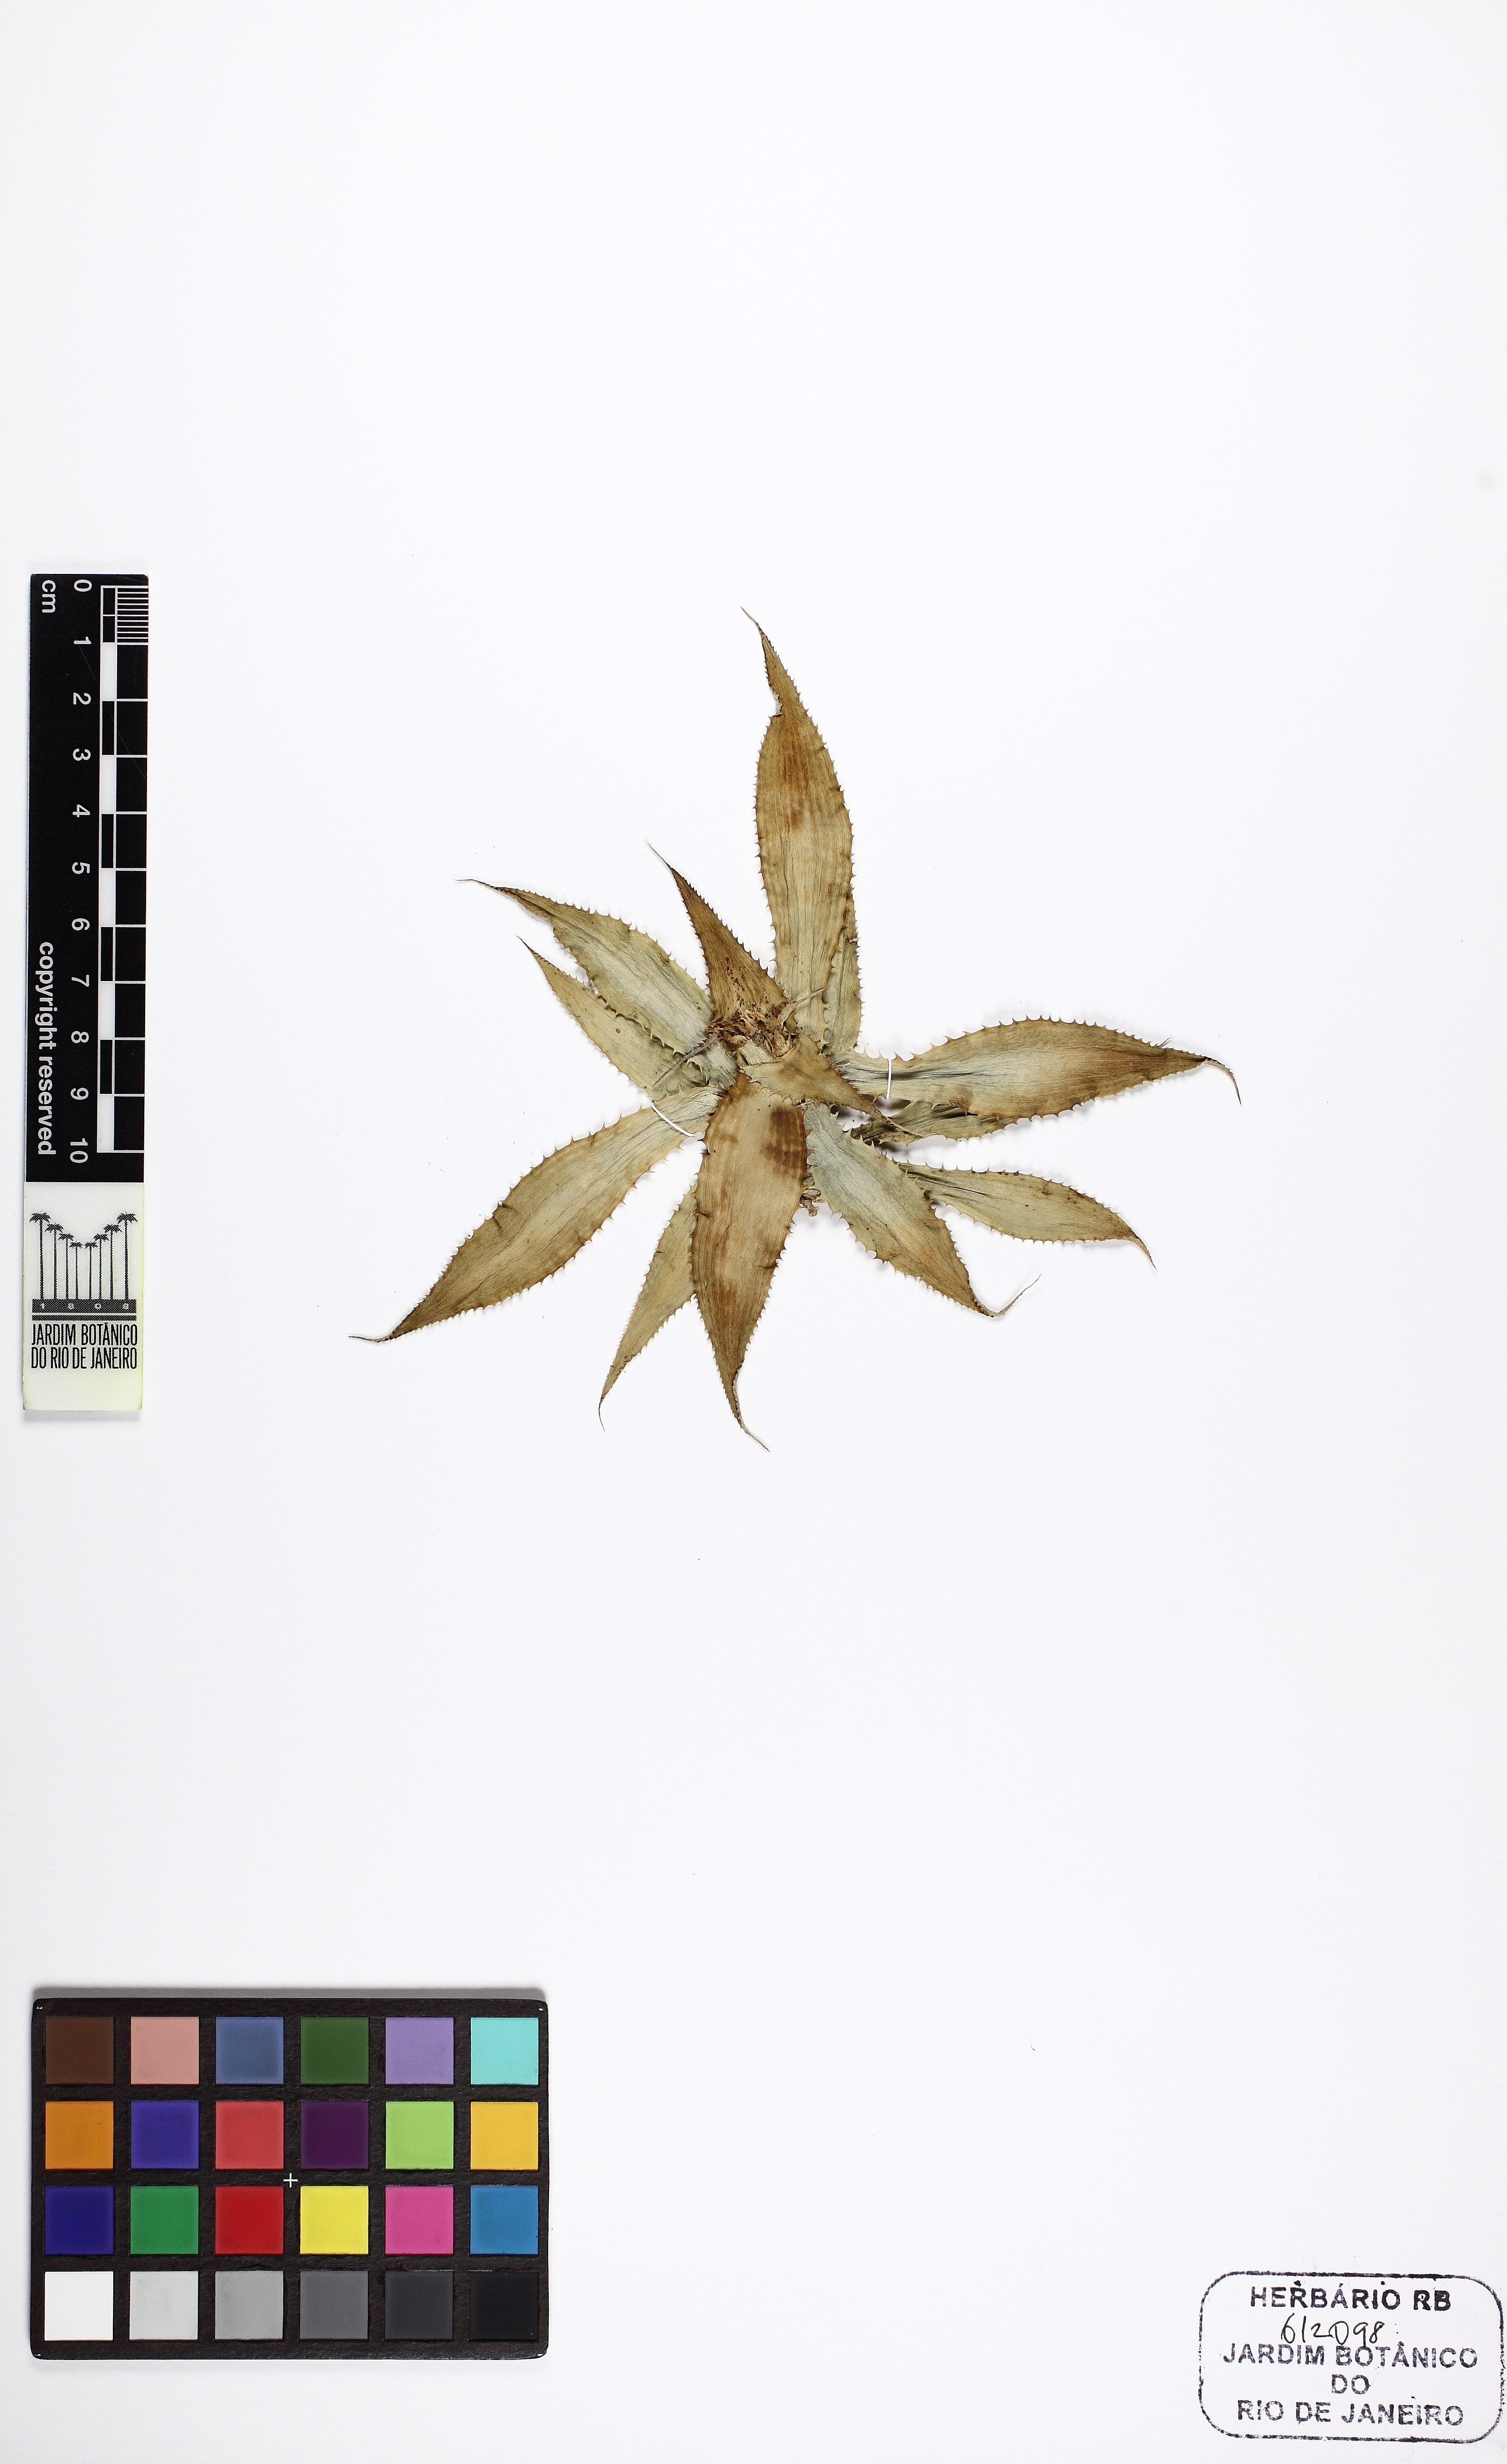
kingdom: Plantae
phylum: Tracheophyta
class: Liliopsida
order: Poales
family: Bromeliaceae
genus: Cryptanthus
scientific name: Cryptanthus
